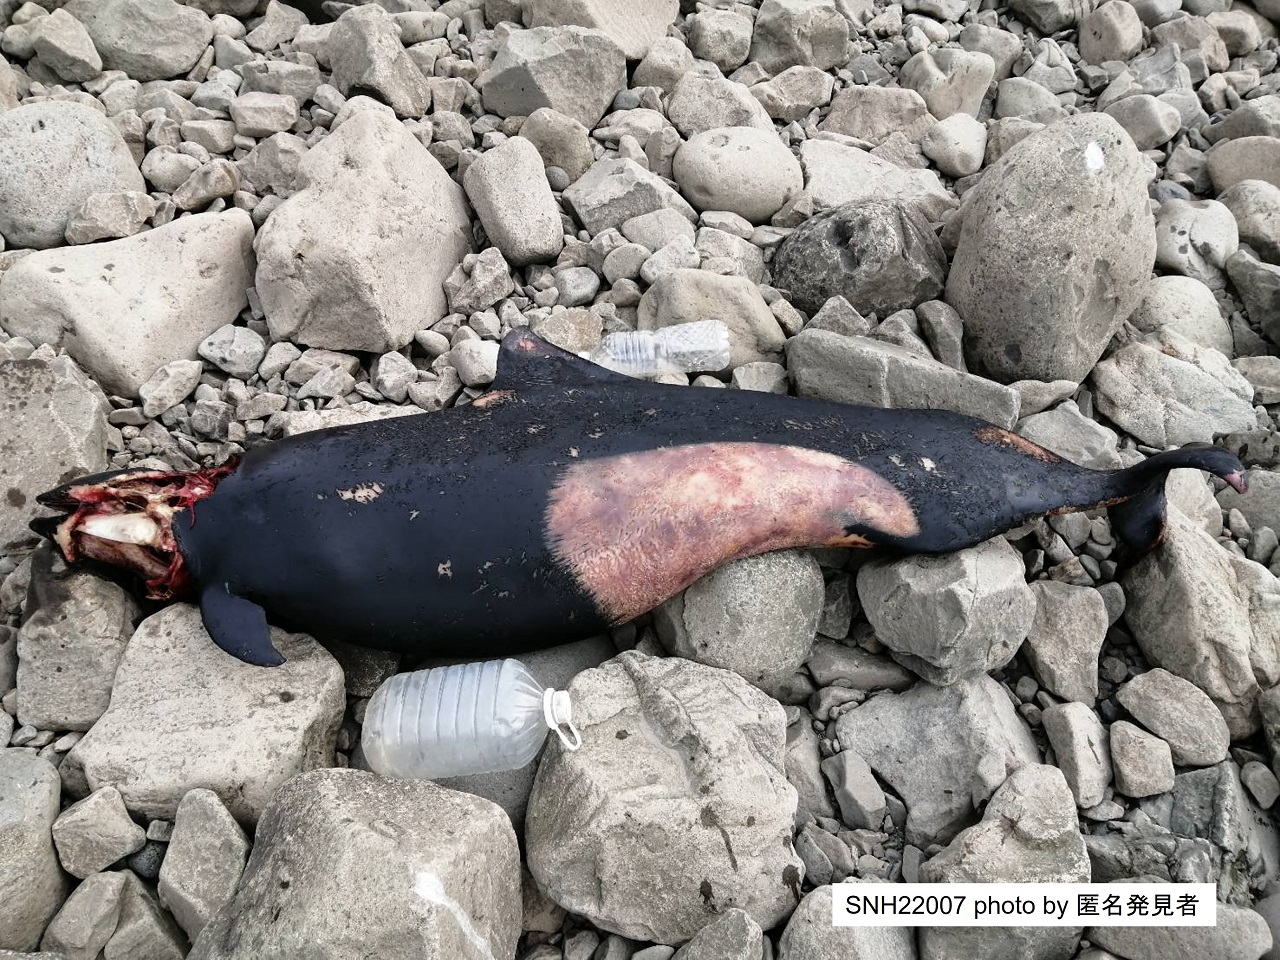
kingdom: Animalia
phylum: Chordata
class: Mammalia
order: Cetacea
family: Phocoenidae
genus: Phocoenoides
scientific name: Phocoenoides dalli
